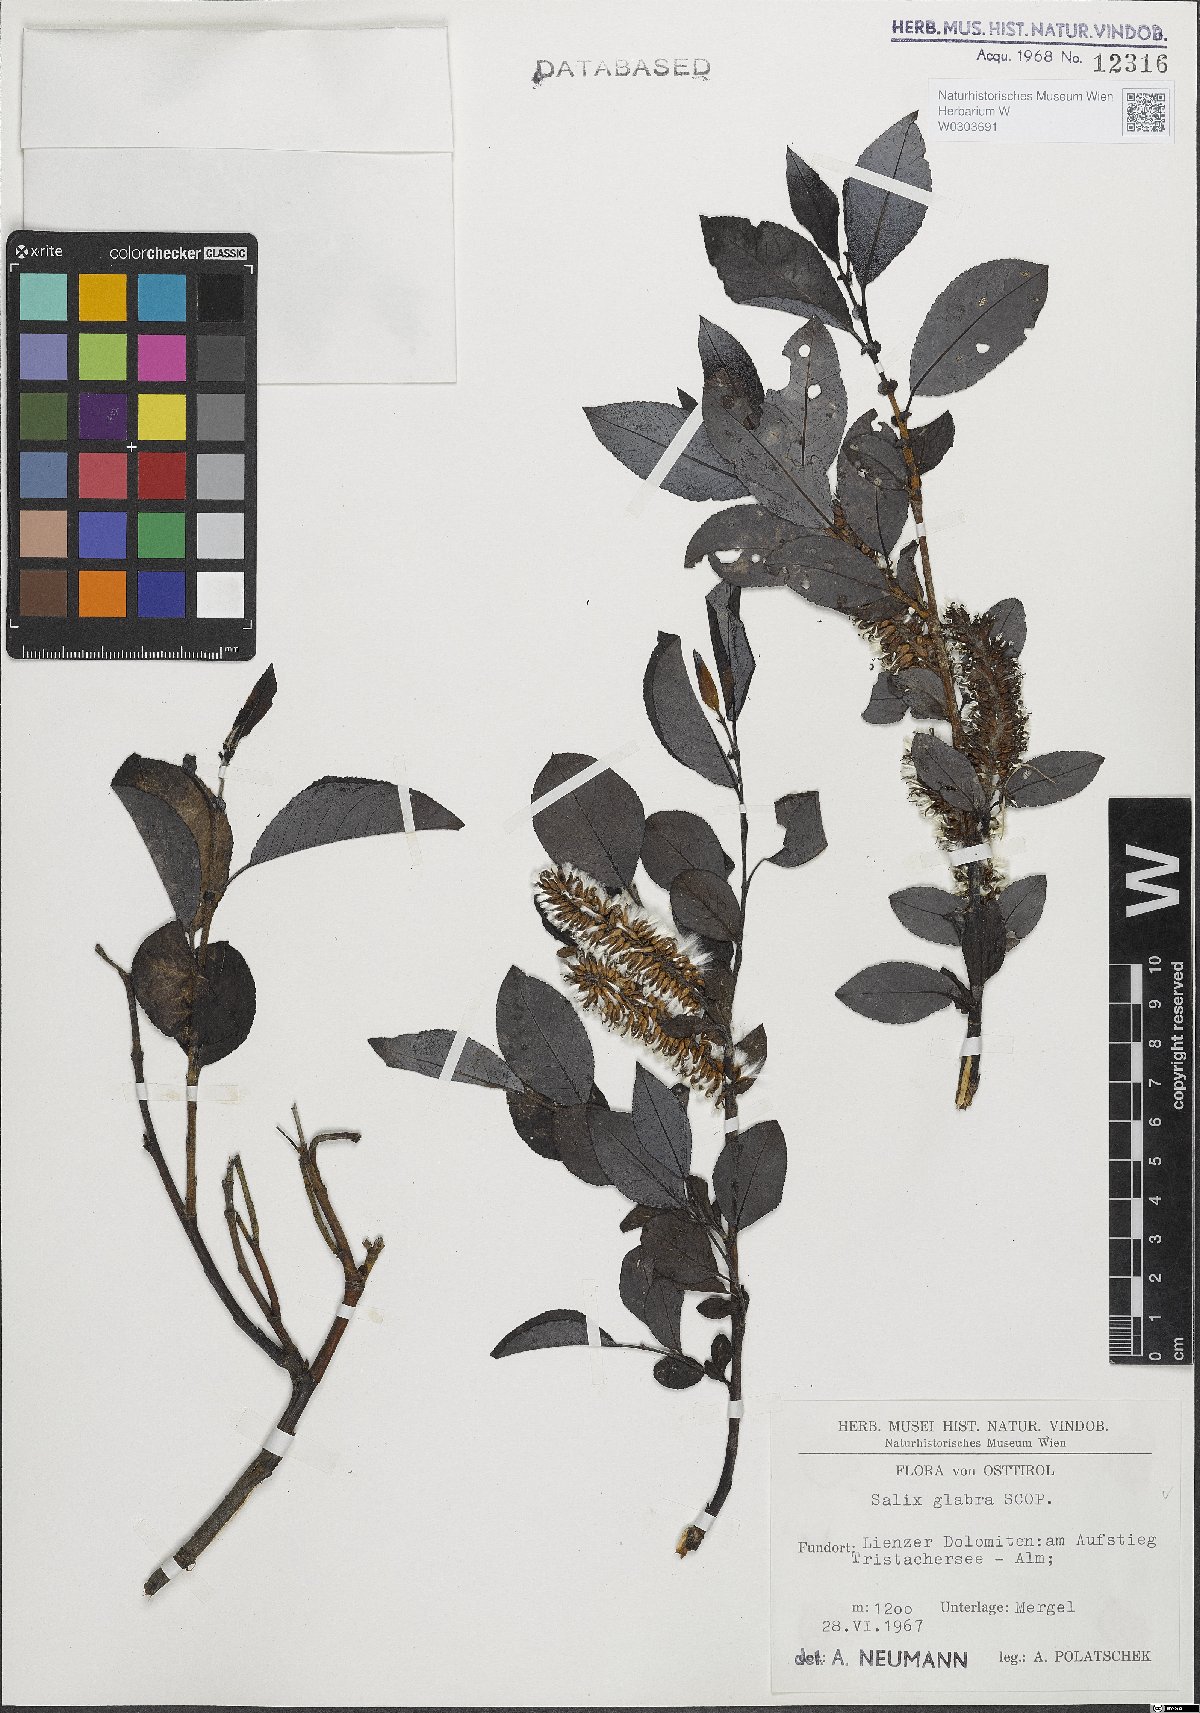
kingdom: Plantae
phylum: Tracheophyta
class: Magnoliopsida
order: Malpighiales
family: Salicaceae
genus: Salix
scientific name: Salix glabra
